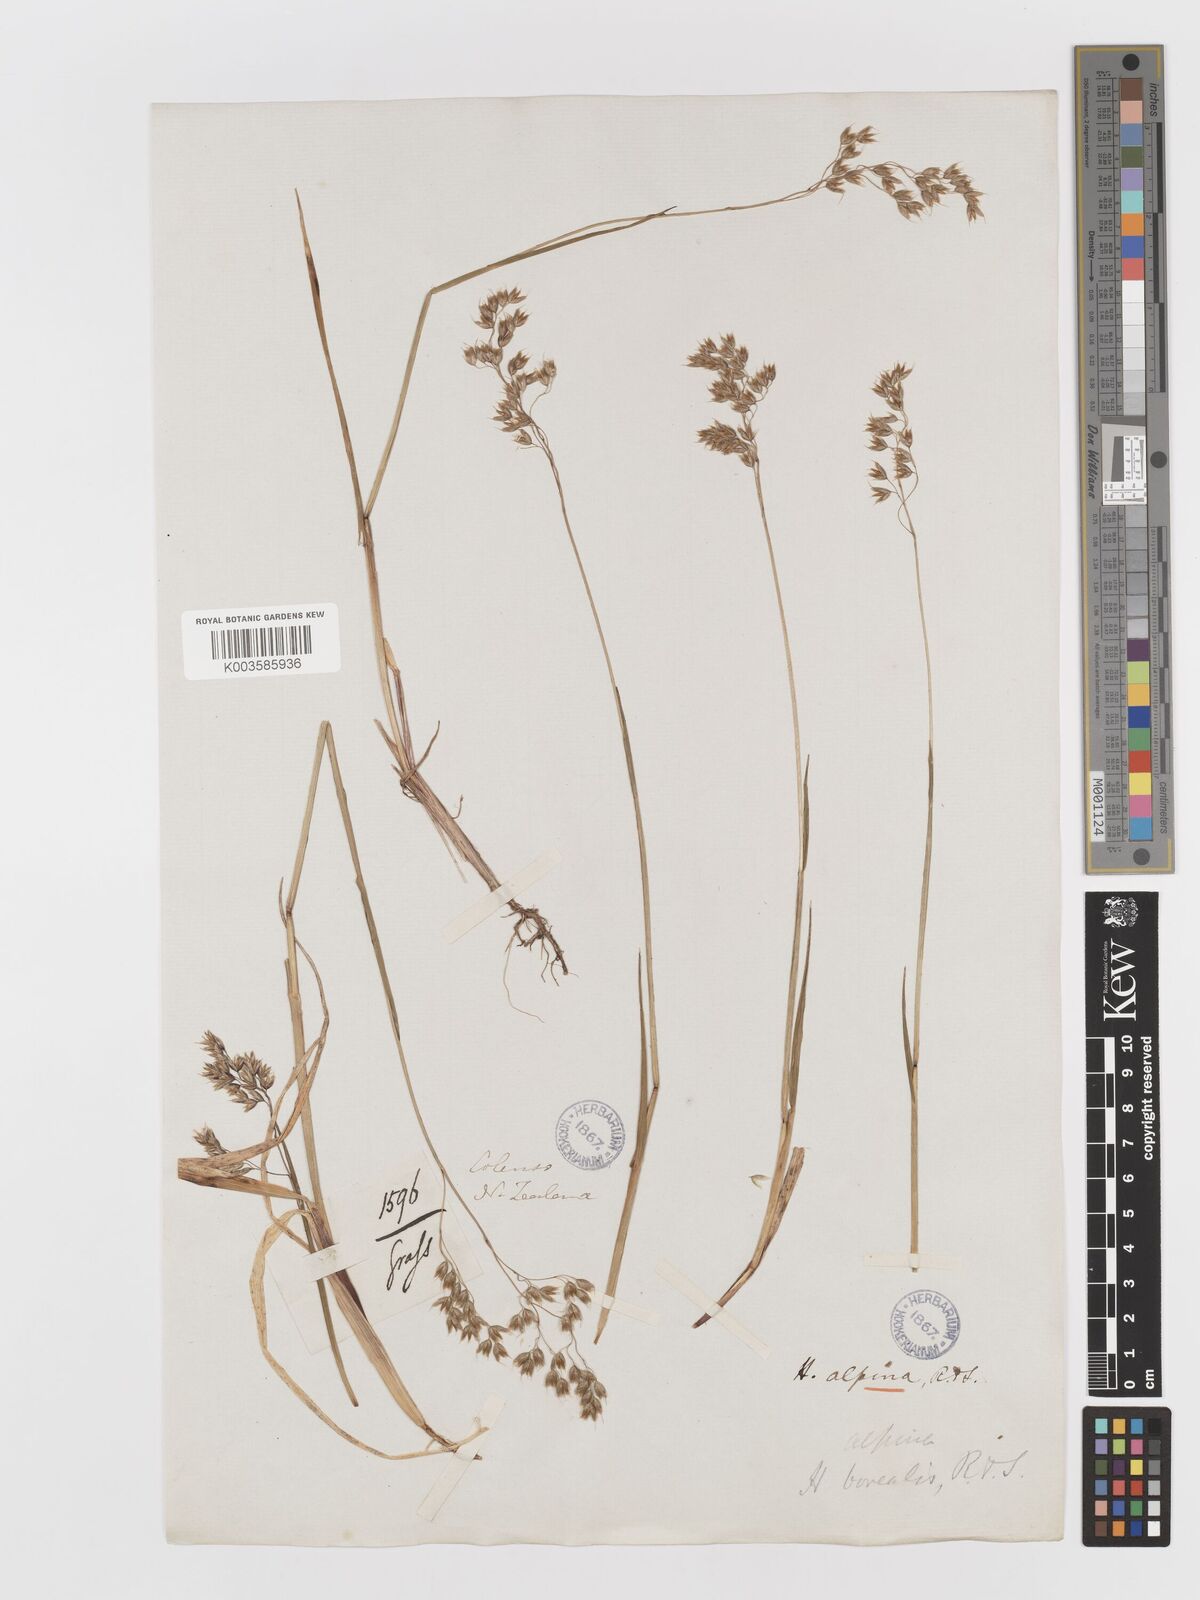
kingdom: Plantae
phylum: Tracheophyta
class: Liliopsida
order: Poales
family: Poaceae
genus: Anthoxanthum
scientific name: Anthoxanthum novae-zelandiae
